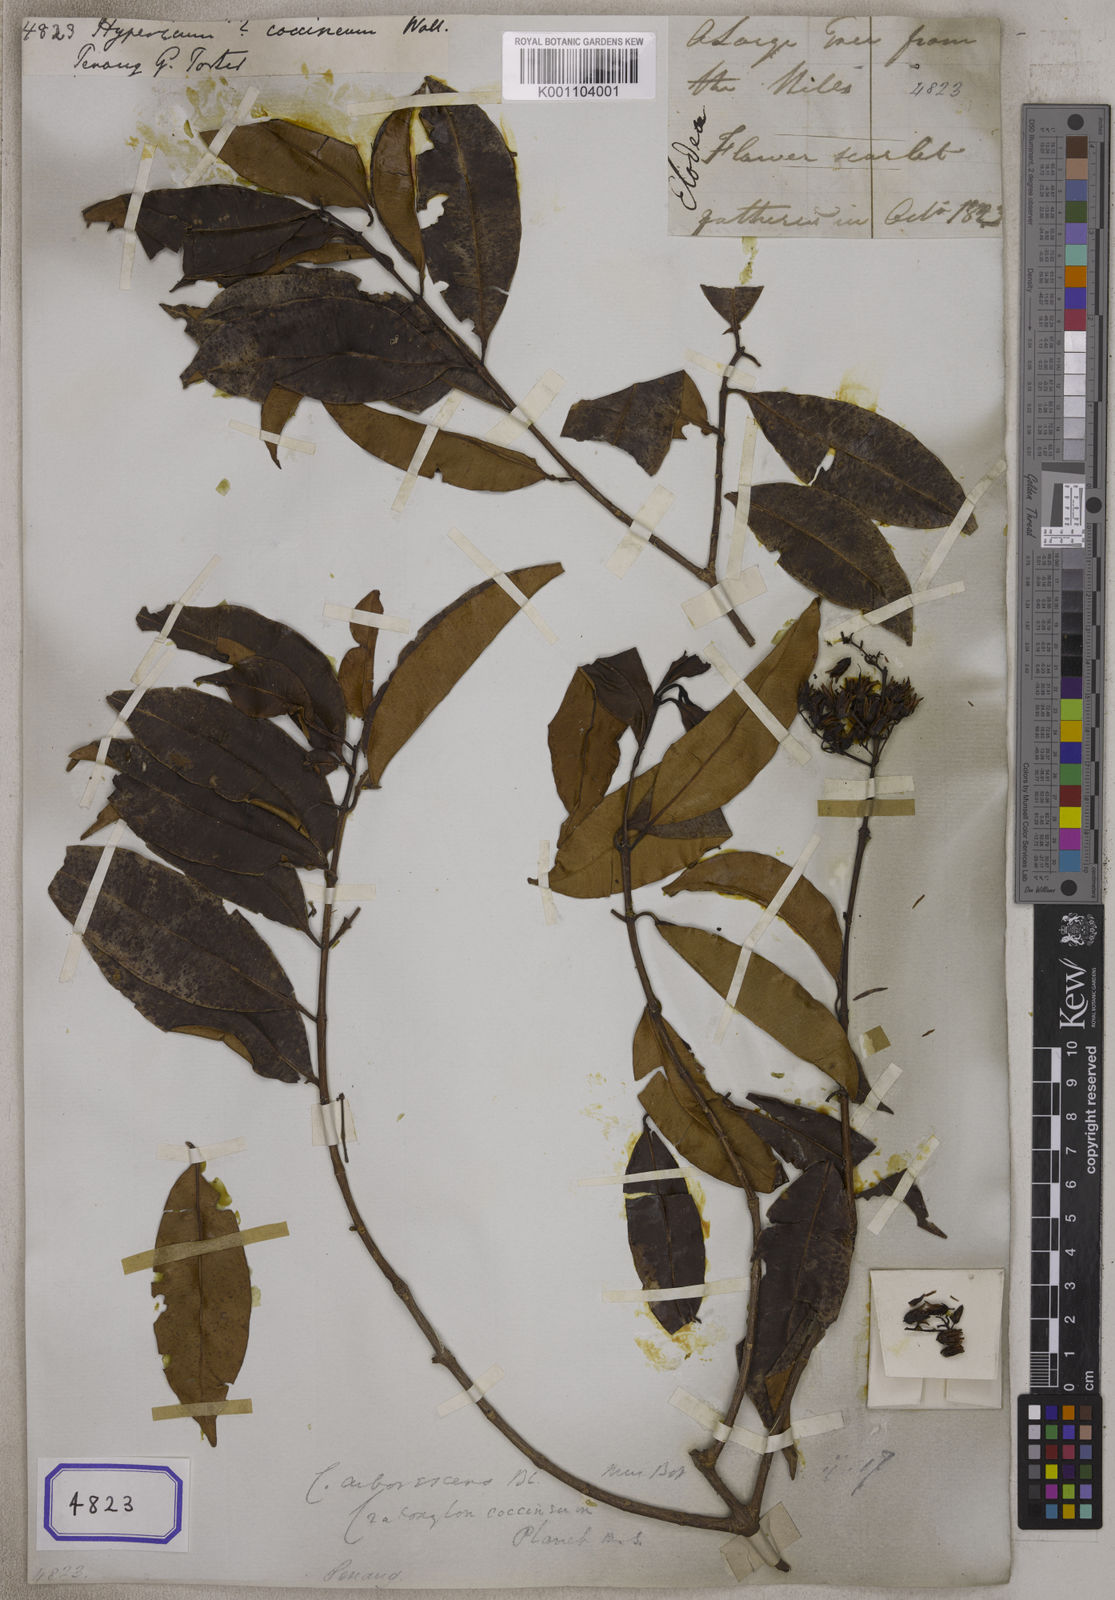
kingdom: Plantae
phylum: Tracheophyta
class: Magnoliopsida
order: Malpighiales
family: Hypericaceae
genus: Cratoxylum
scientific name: Cratoxylum sumatranum
